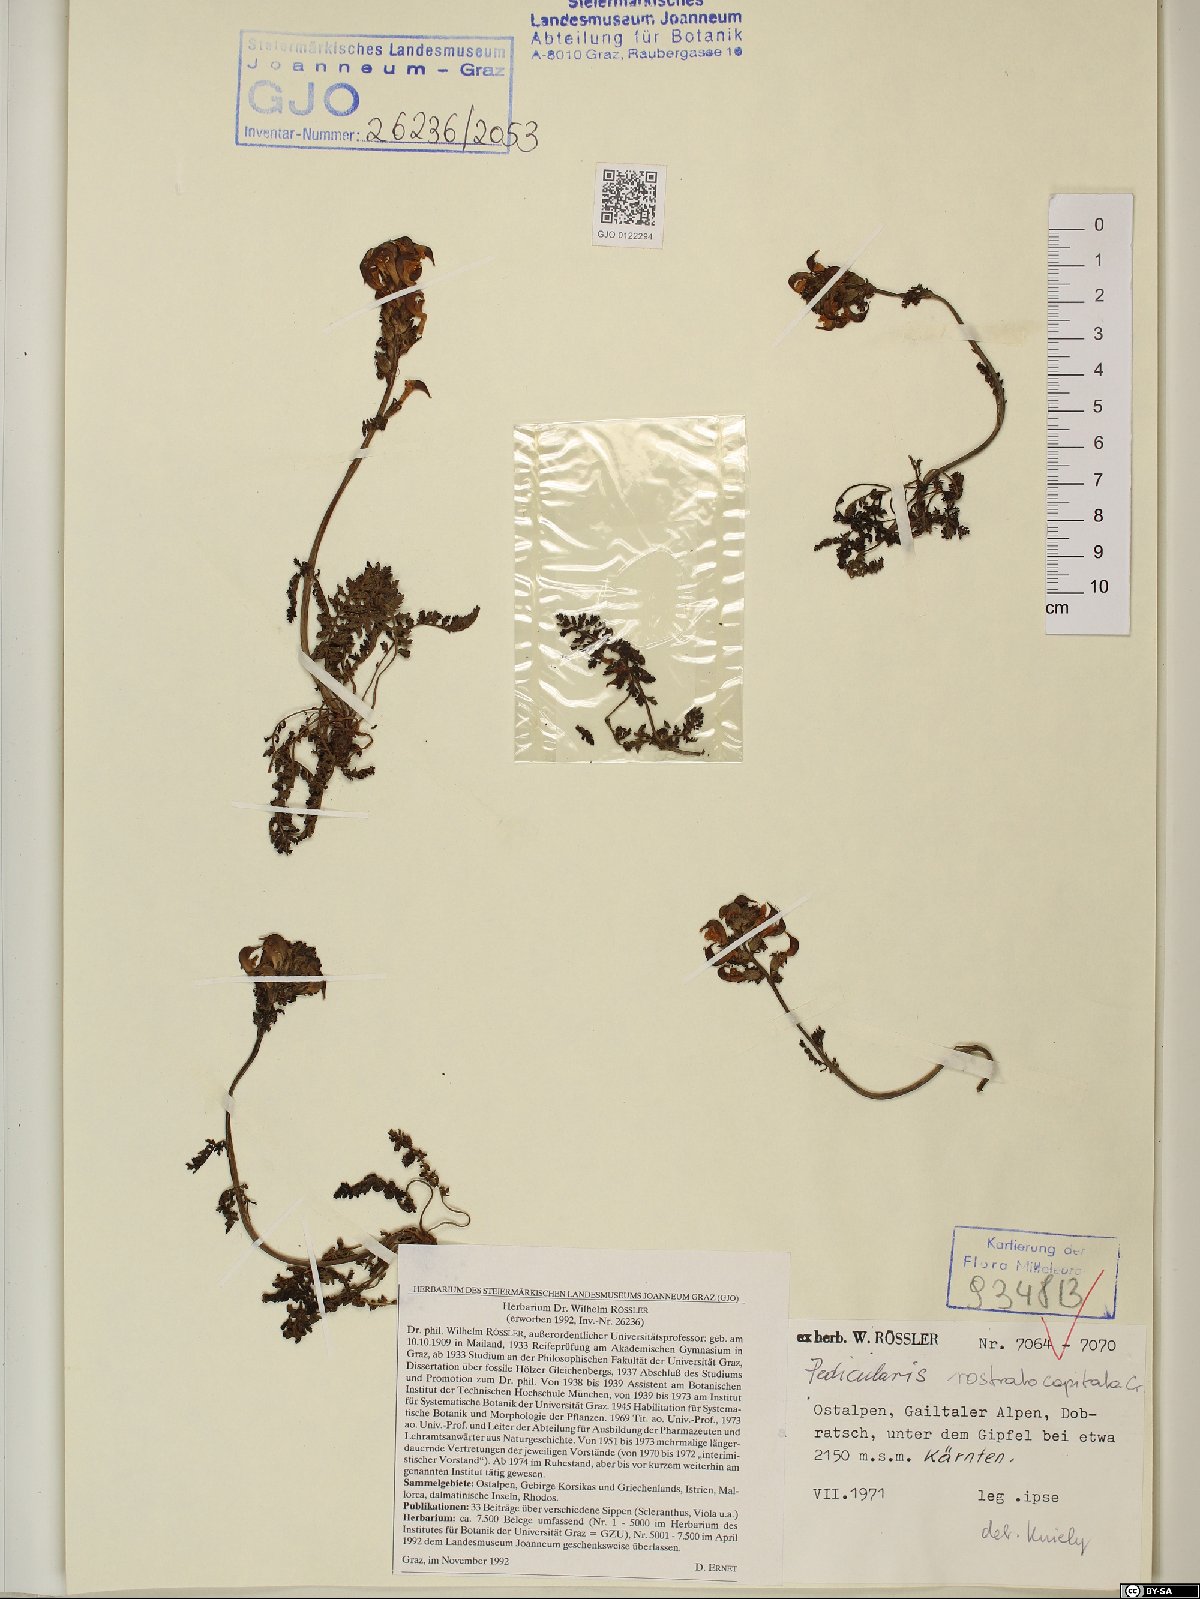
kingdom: Plantae
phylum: Tracheophyta
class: Magnoliopsida
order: Lamiales
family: Orobanchaceae
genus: Pedicularis
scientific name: Pedicularis rostratocapitata
